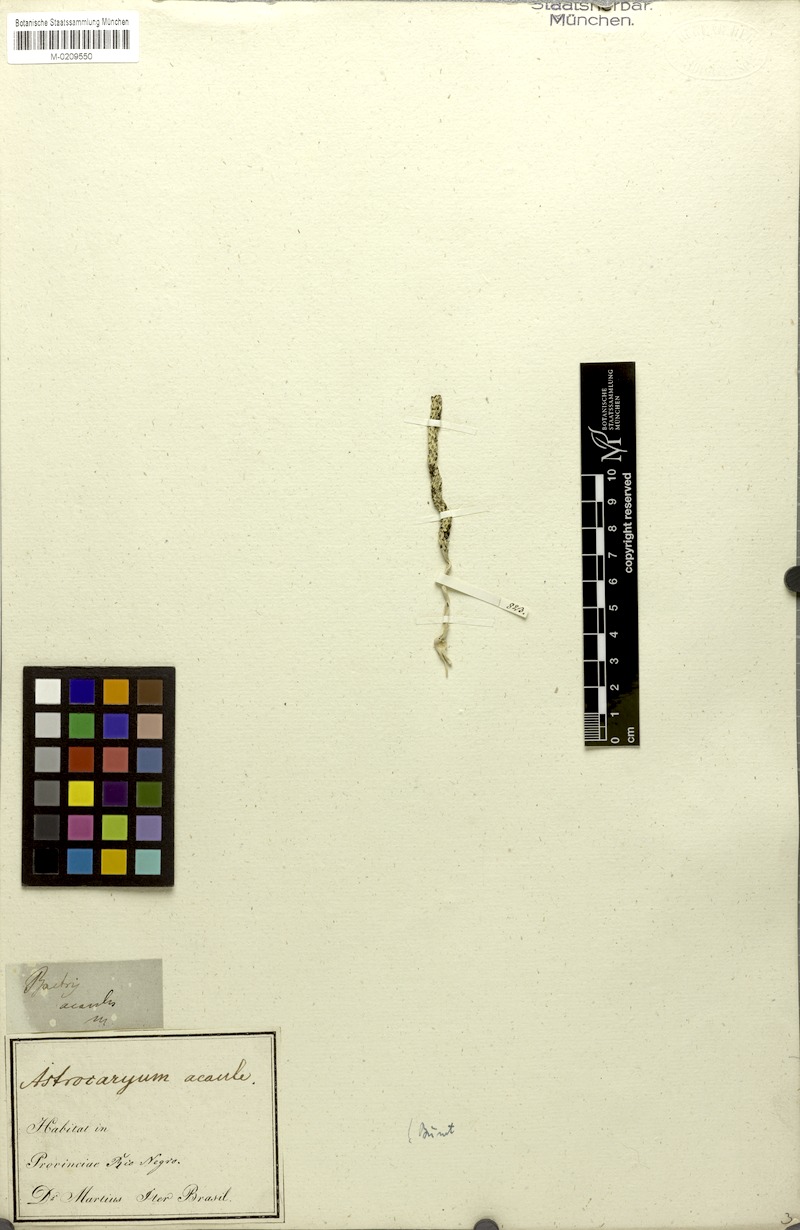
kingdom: Plantae
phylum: Tracheophyta
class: Liliopsida
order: Arecales
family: Arecaceae
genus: Astrocaryum
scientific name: Astrocaryum acaule
